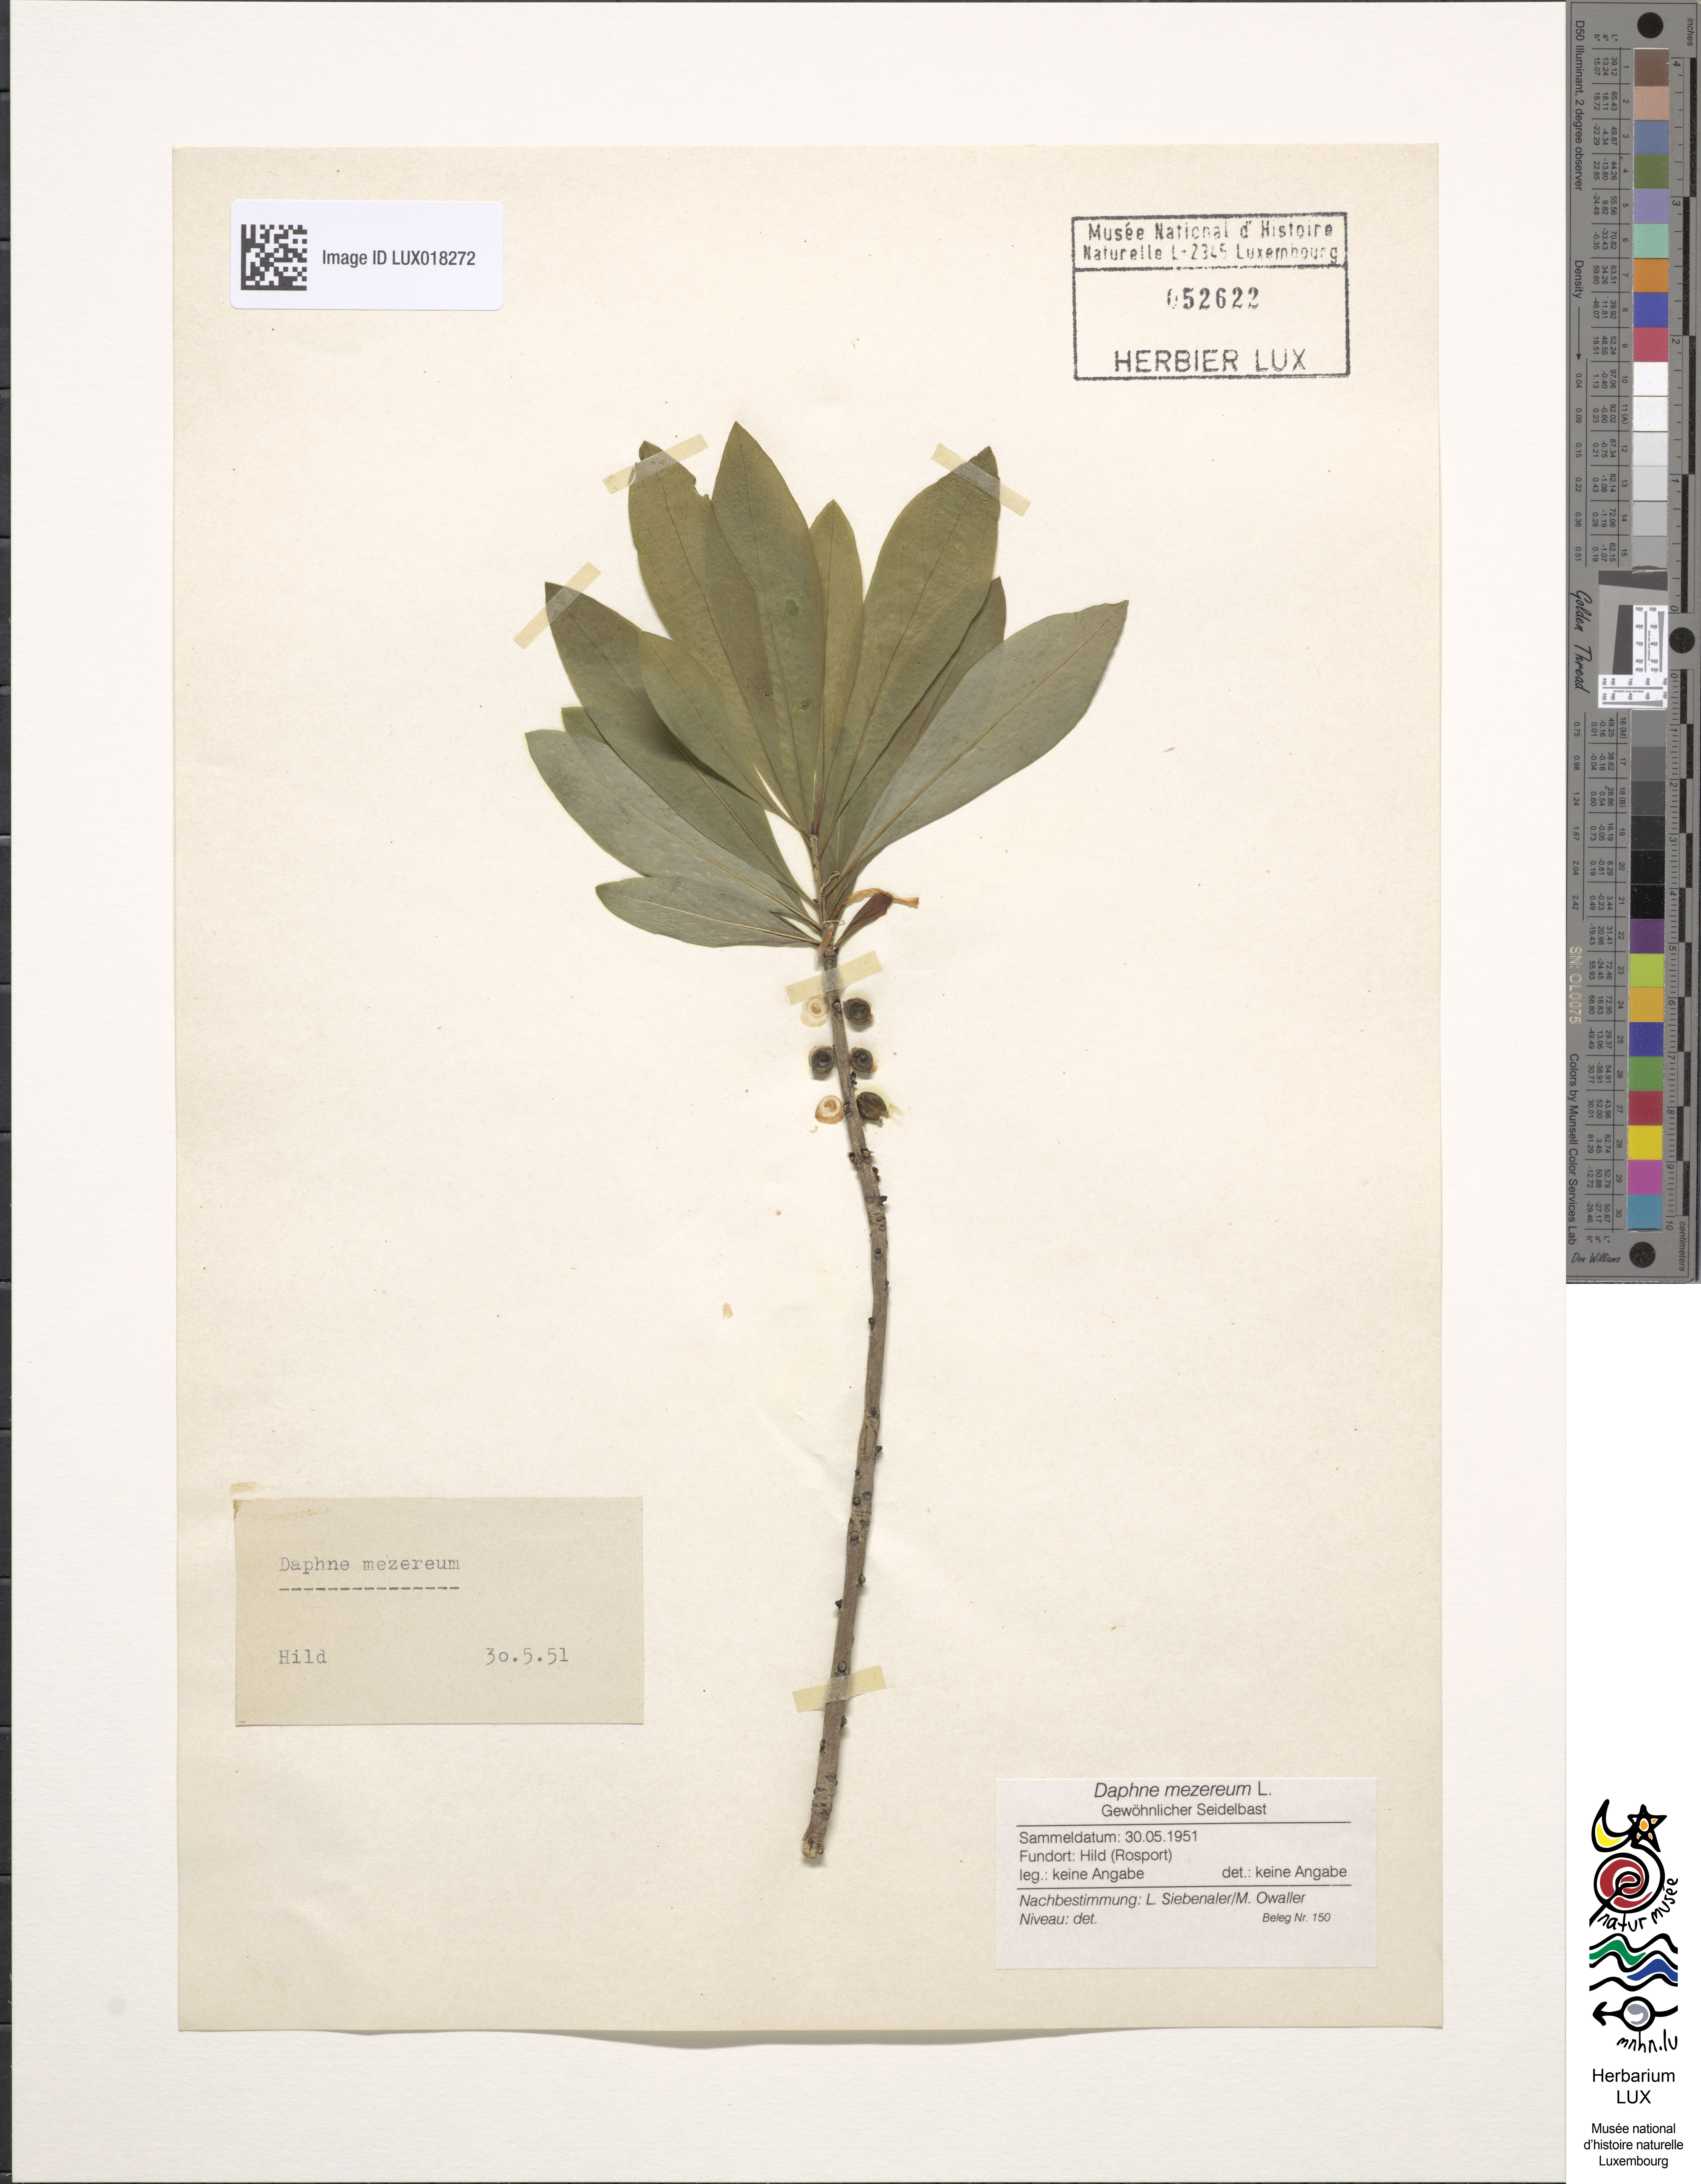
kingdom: Plantae
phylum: Tracheophyta
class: Magnoliopsida
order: Malvales
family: Thymelaeaceae
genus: Daphne
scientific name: Daphne mezereum
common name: Mezereon
